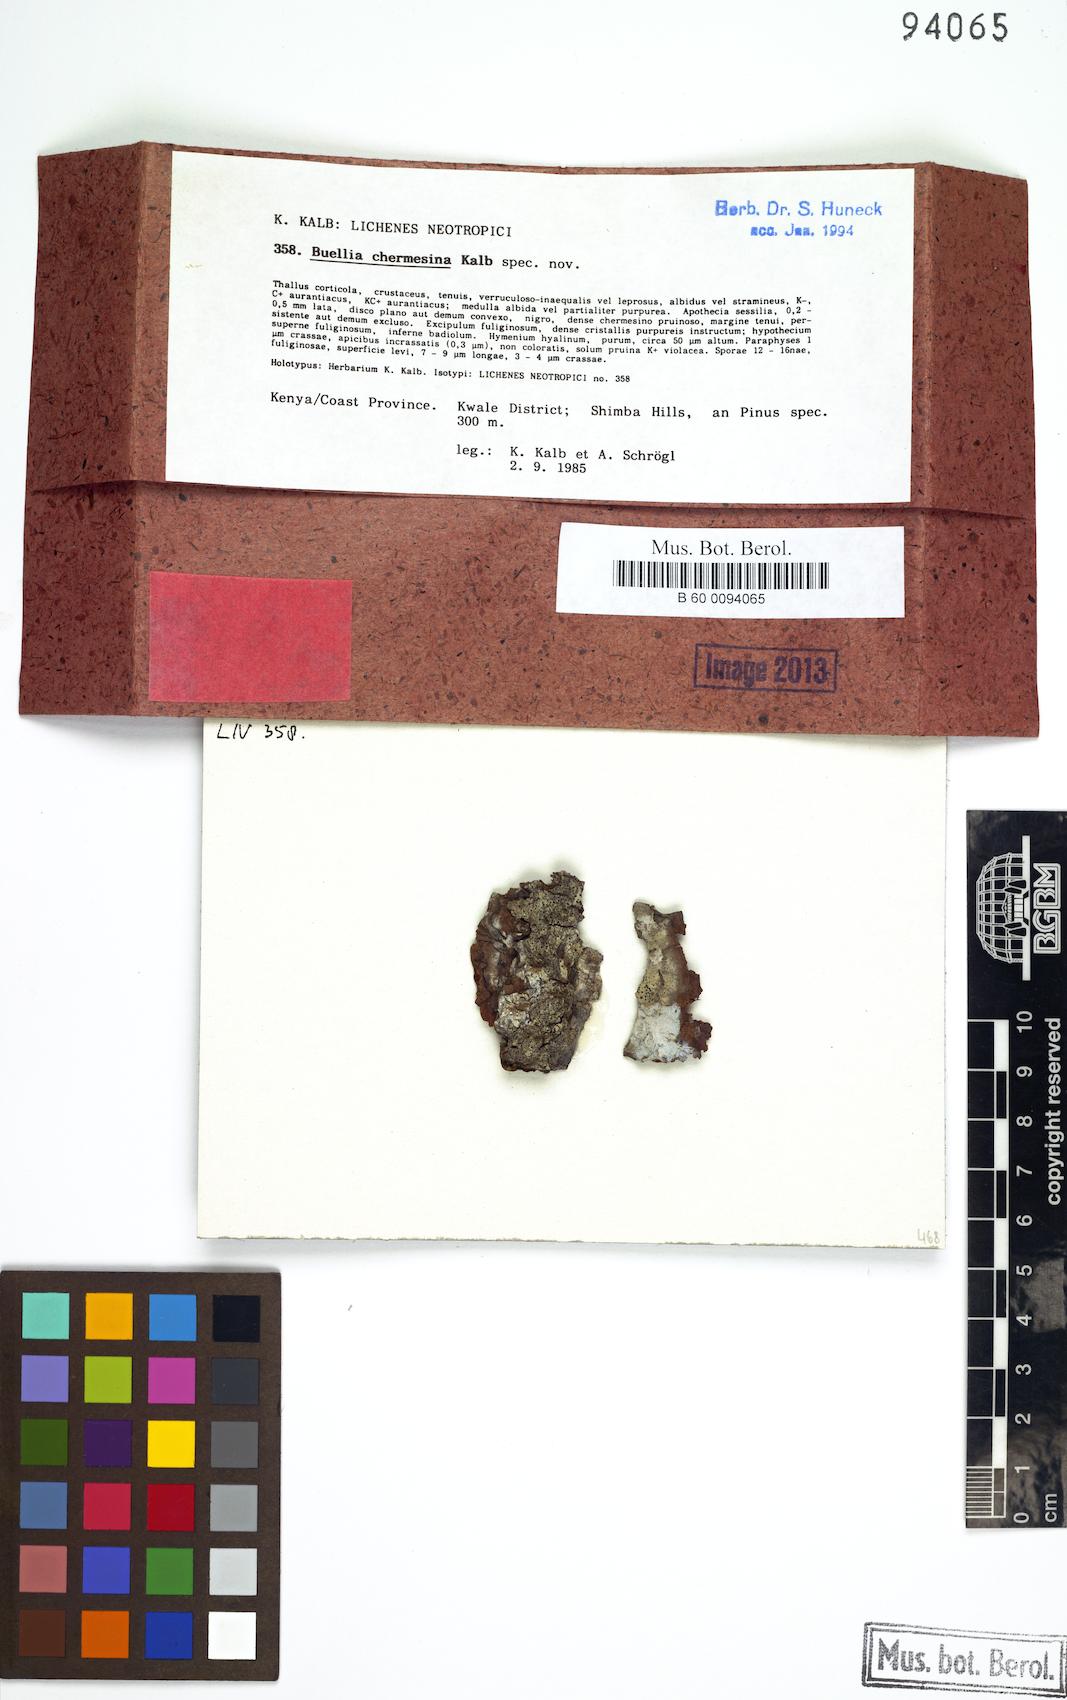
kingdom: Fungi
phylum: Ascomycota
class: Lecanoromycetes
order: Caliciales
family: Caliciaceae
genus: Gassicurtia
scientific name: Gassicurtia chermesina
